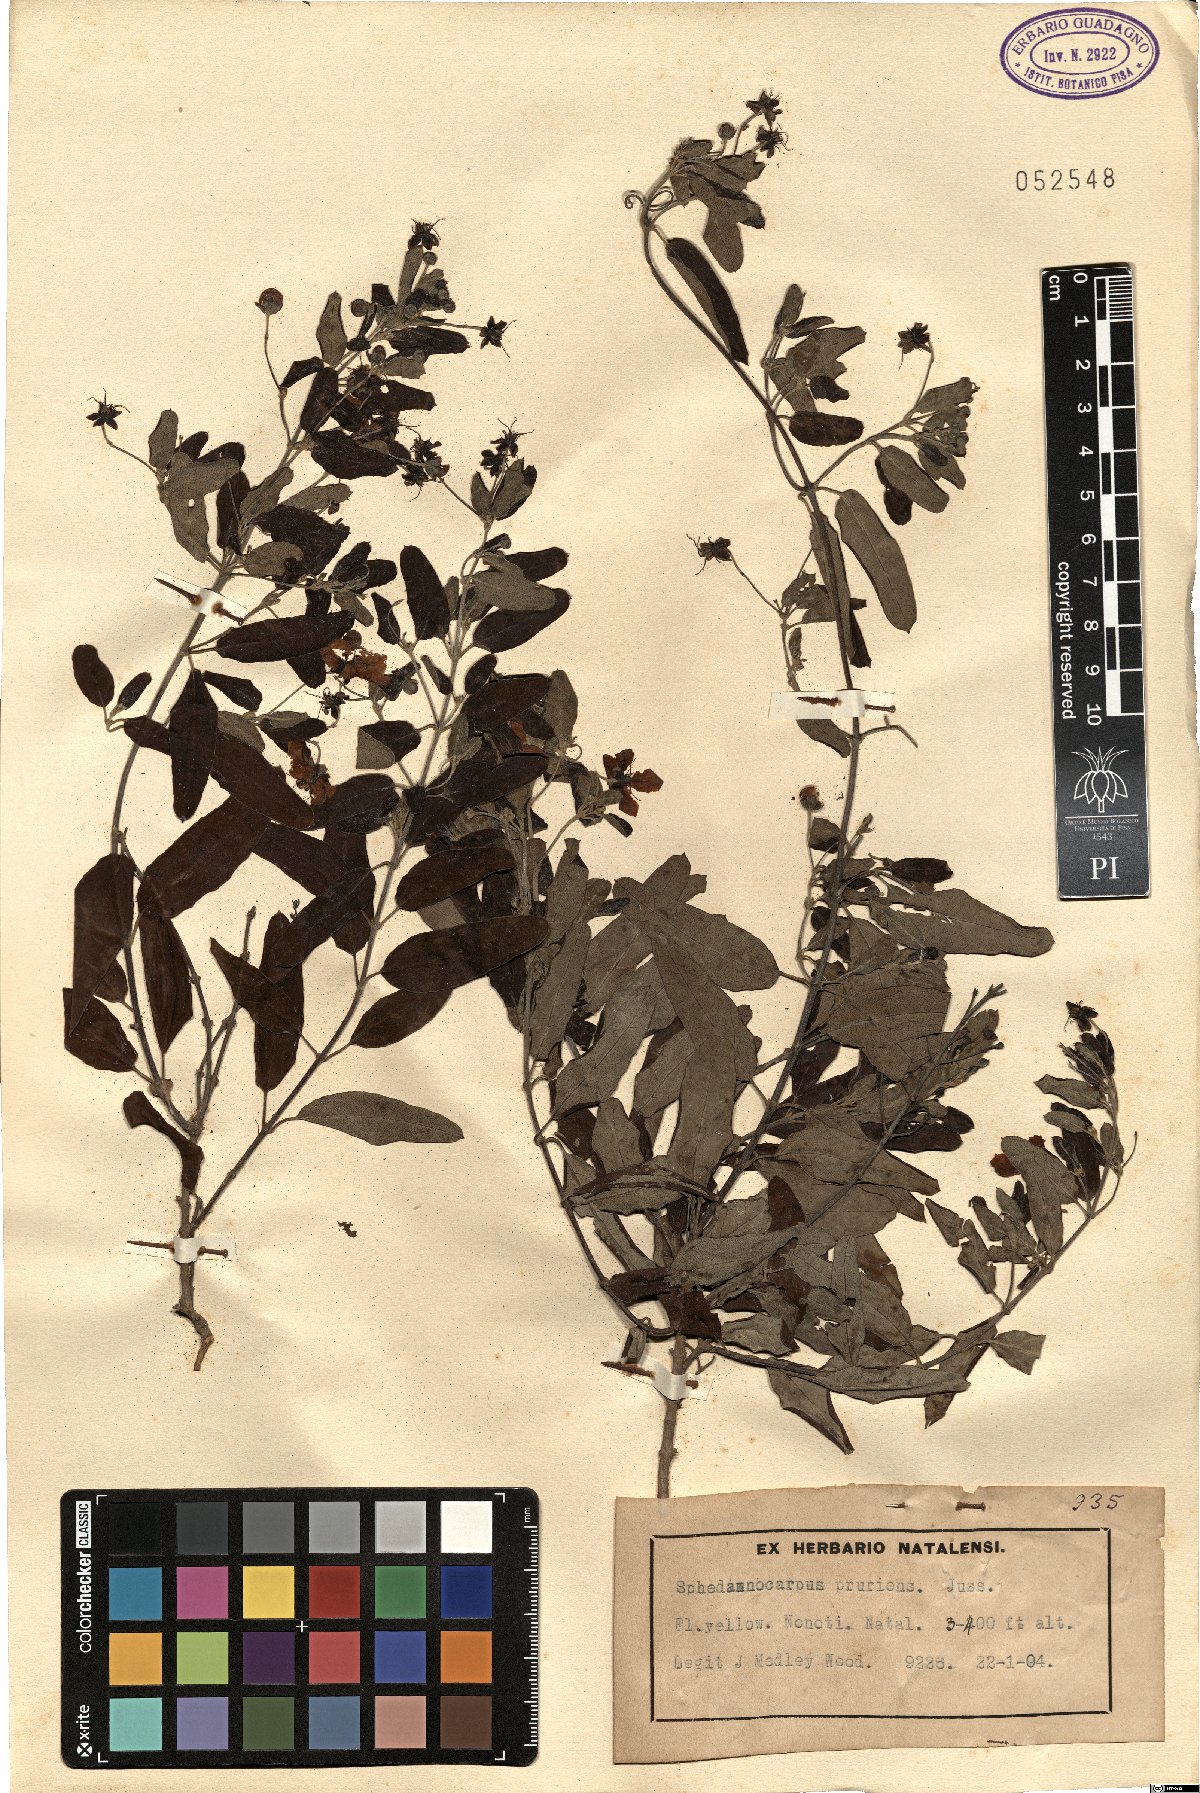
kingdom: Plantae
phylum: Tracheophyta
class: Magnoliopsida
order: Malpighiales
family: Malpighiaceae
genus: Sphedamnocarpus
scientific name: Sphedamnocarpus pruriens
